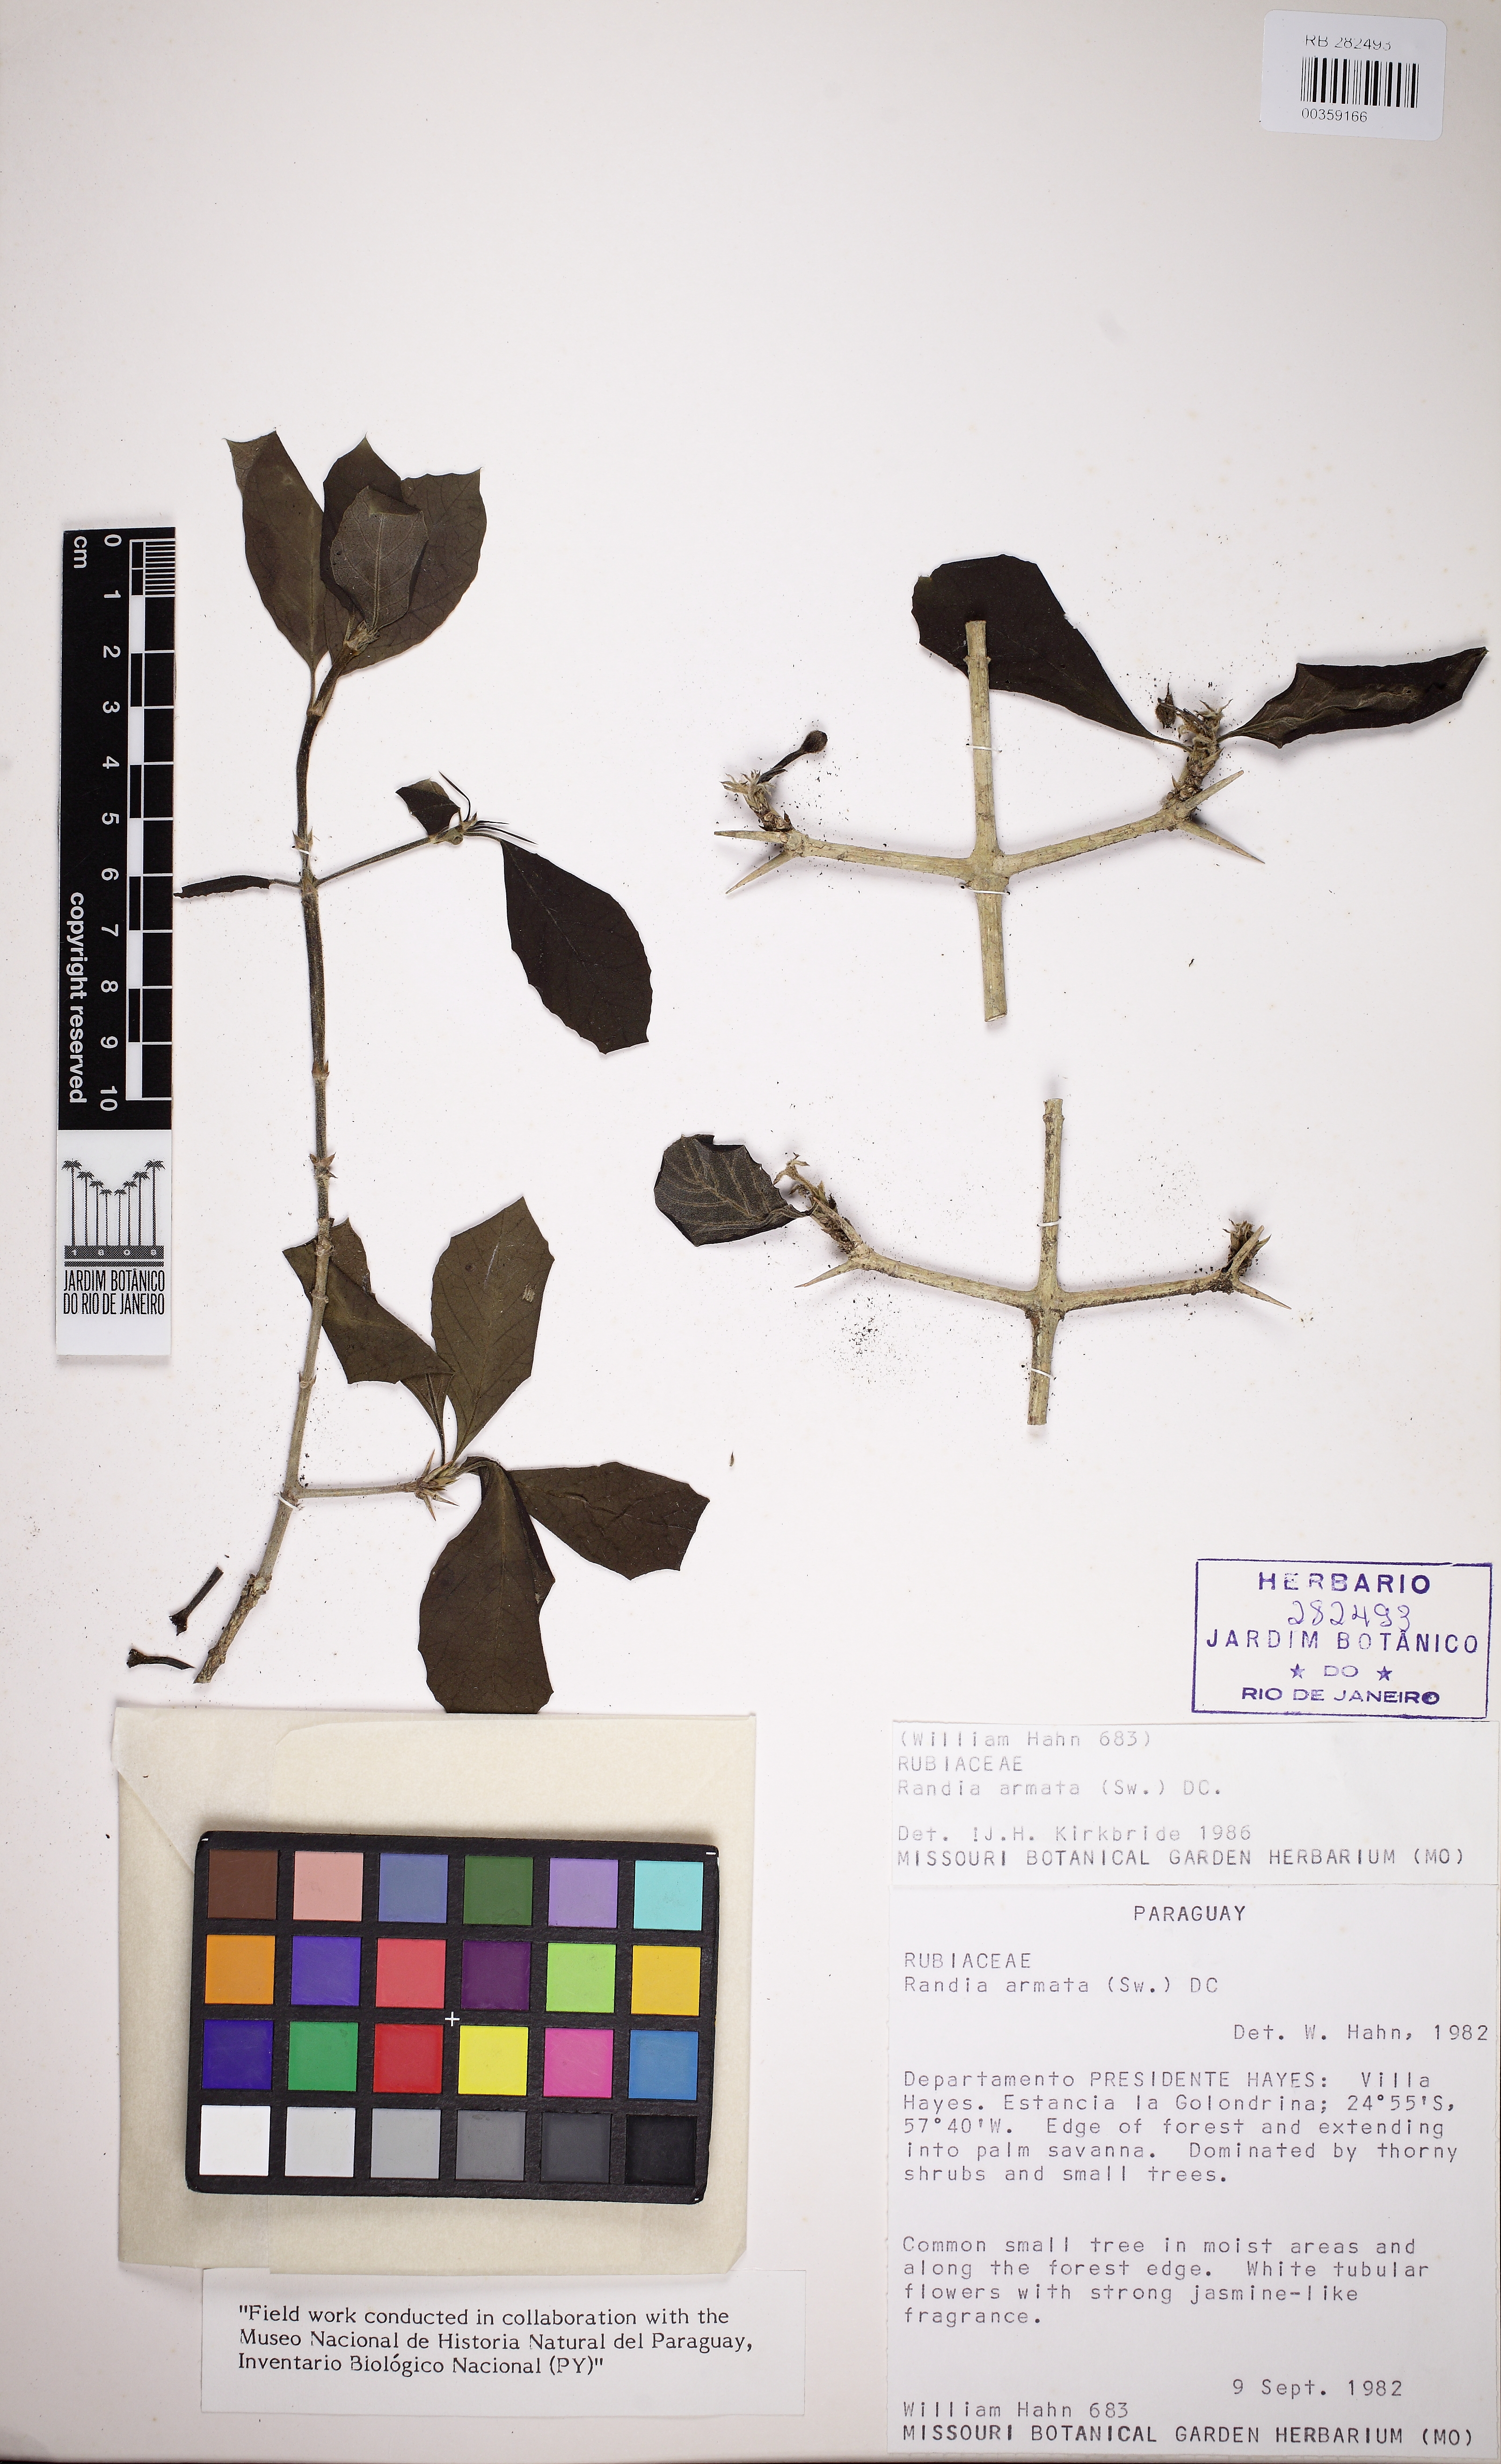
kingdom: Plantae
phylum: Tracheophyta
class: Magnoliopsida
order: Gentianales
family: Rubiaceae
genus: Randia
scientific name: Randia armata
